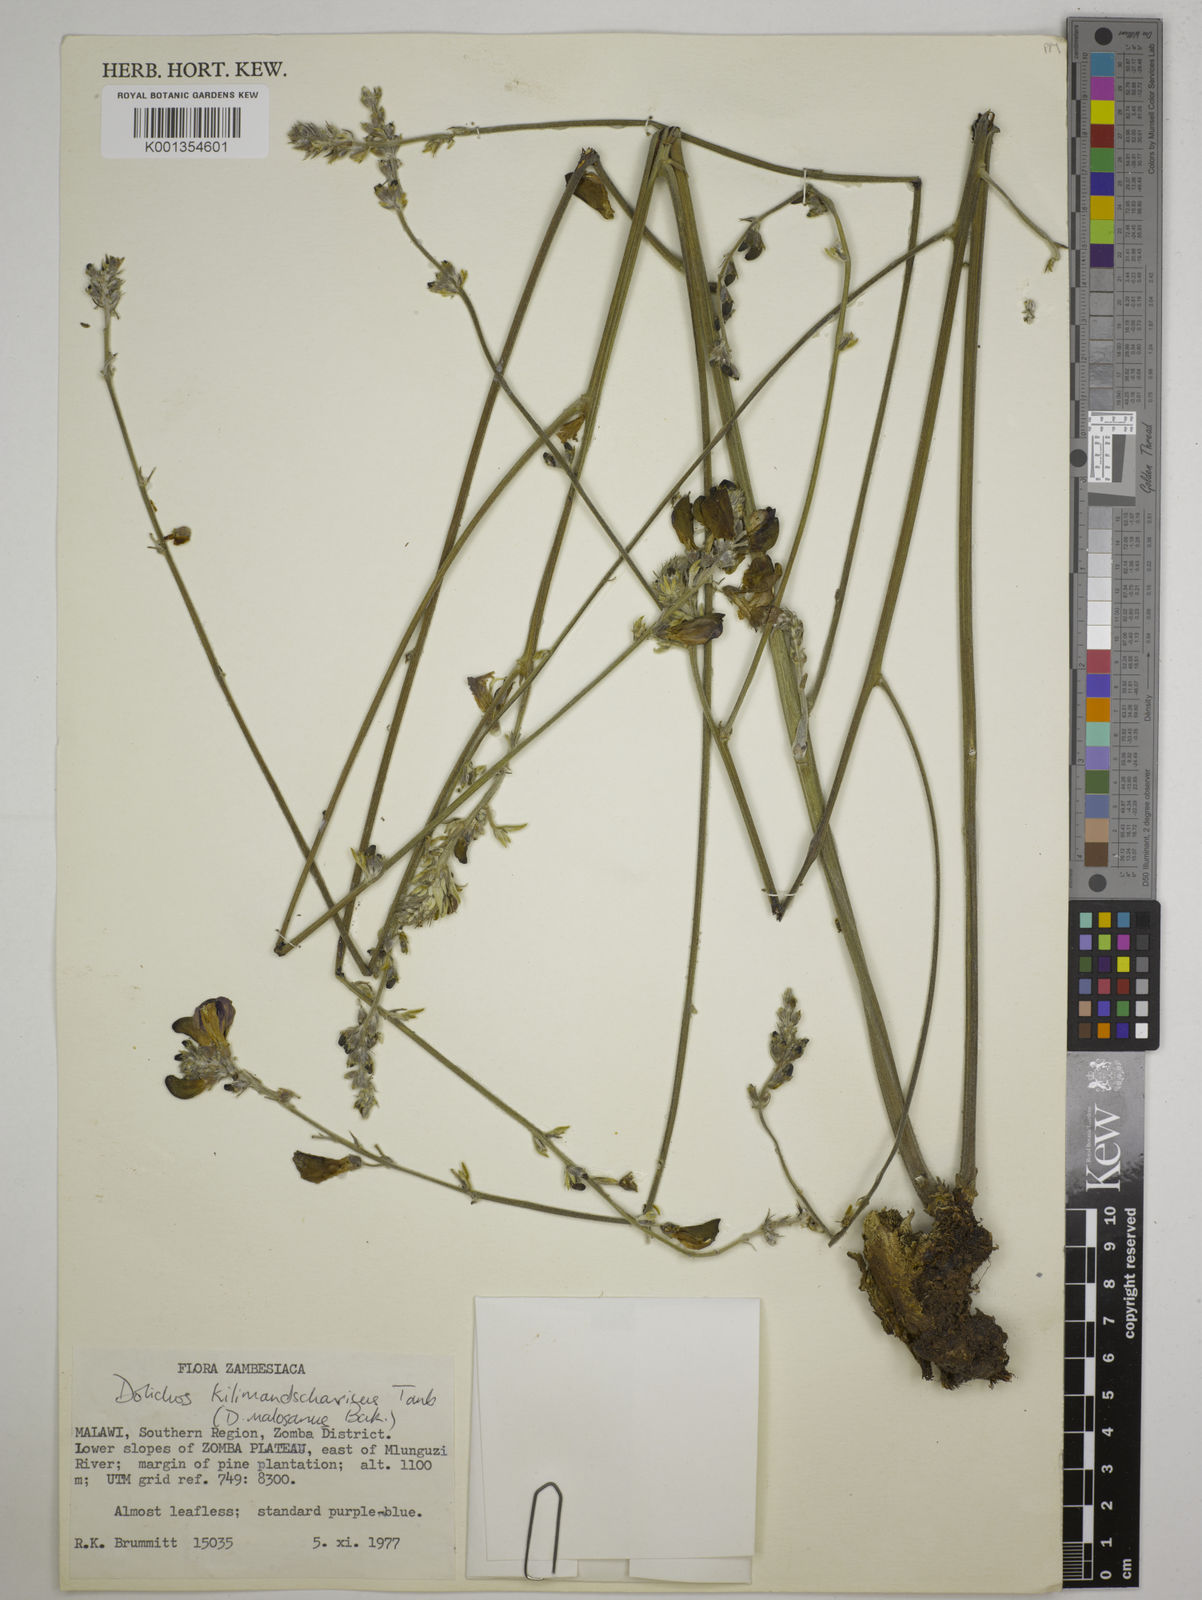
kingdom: Plantae
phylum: Tracheophyta
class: Magnoliopsida
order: Fabales
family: Fabaceae
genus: Dolichos
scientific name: Dolichos kilimandscharicus
